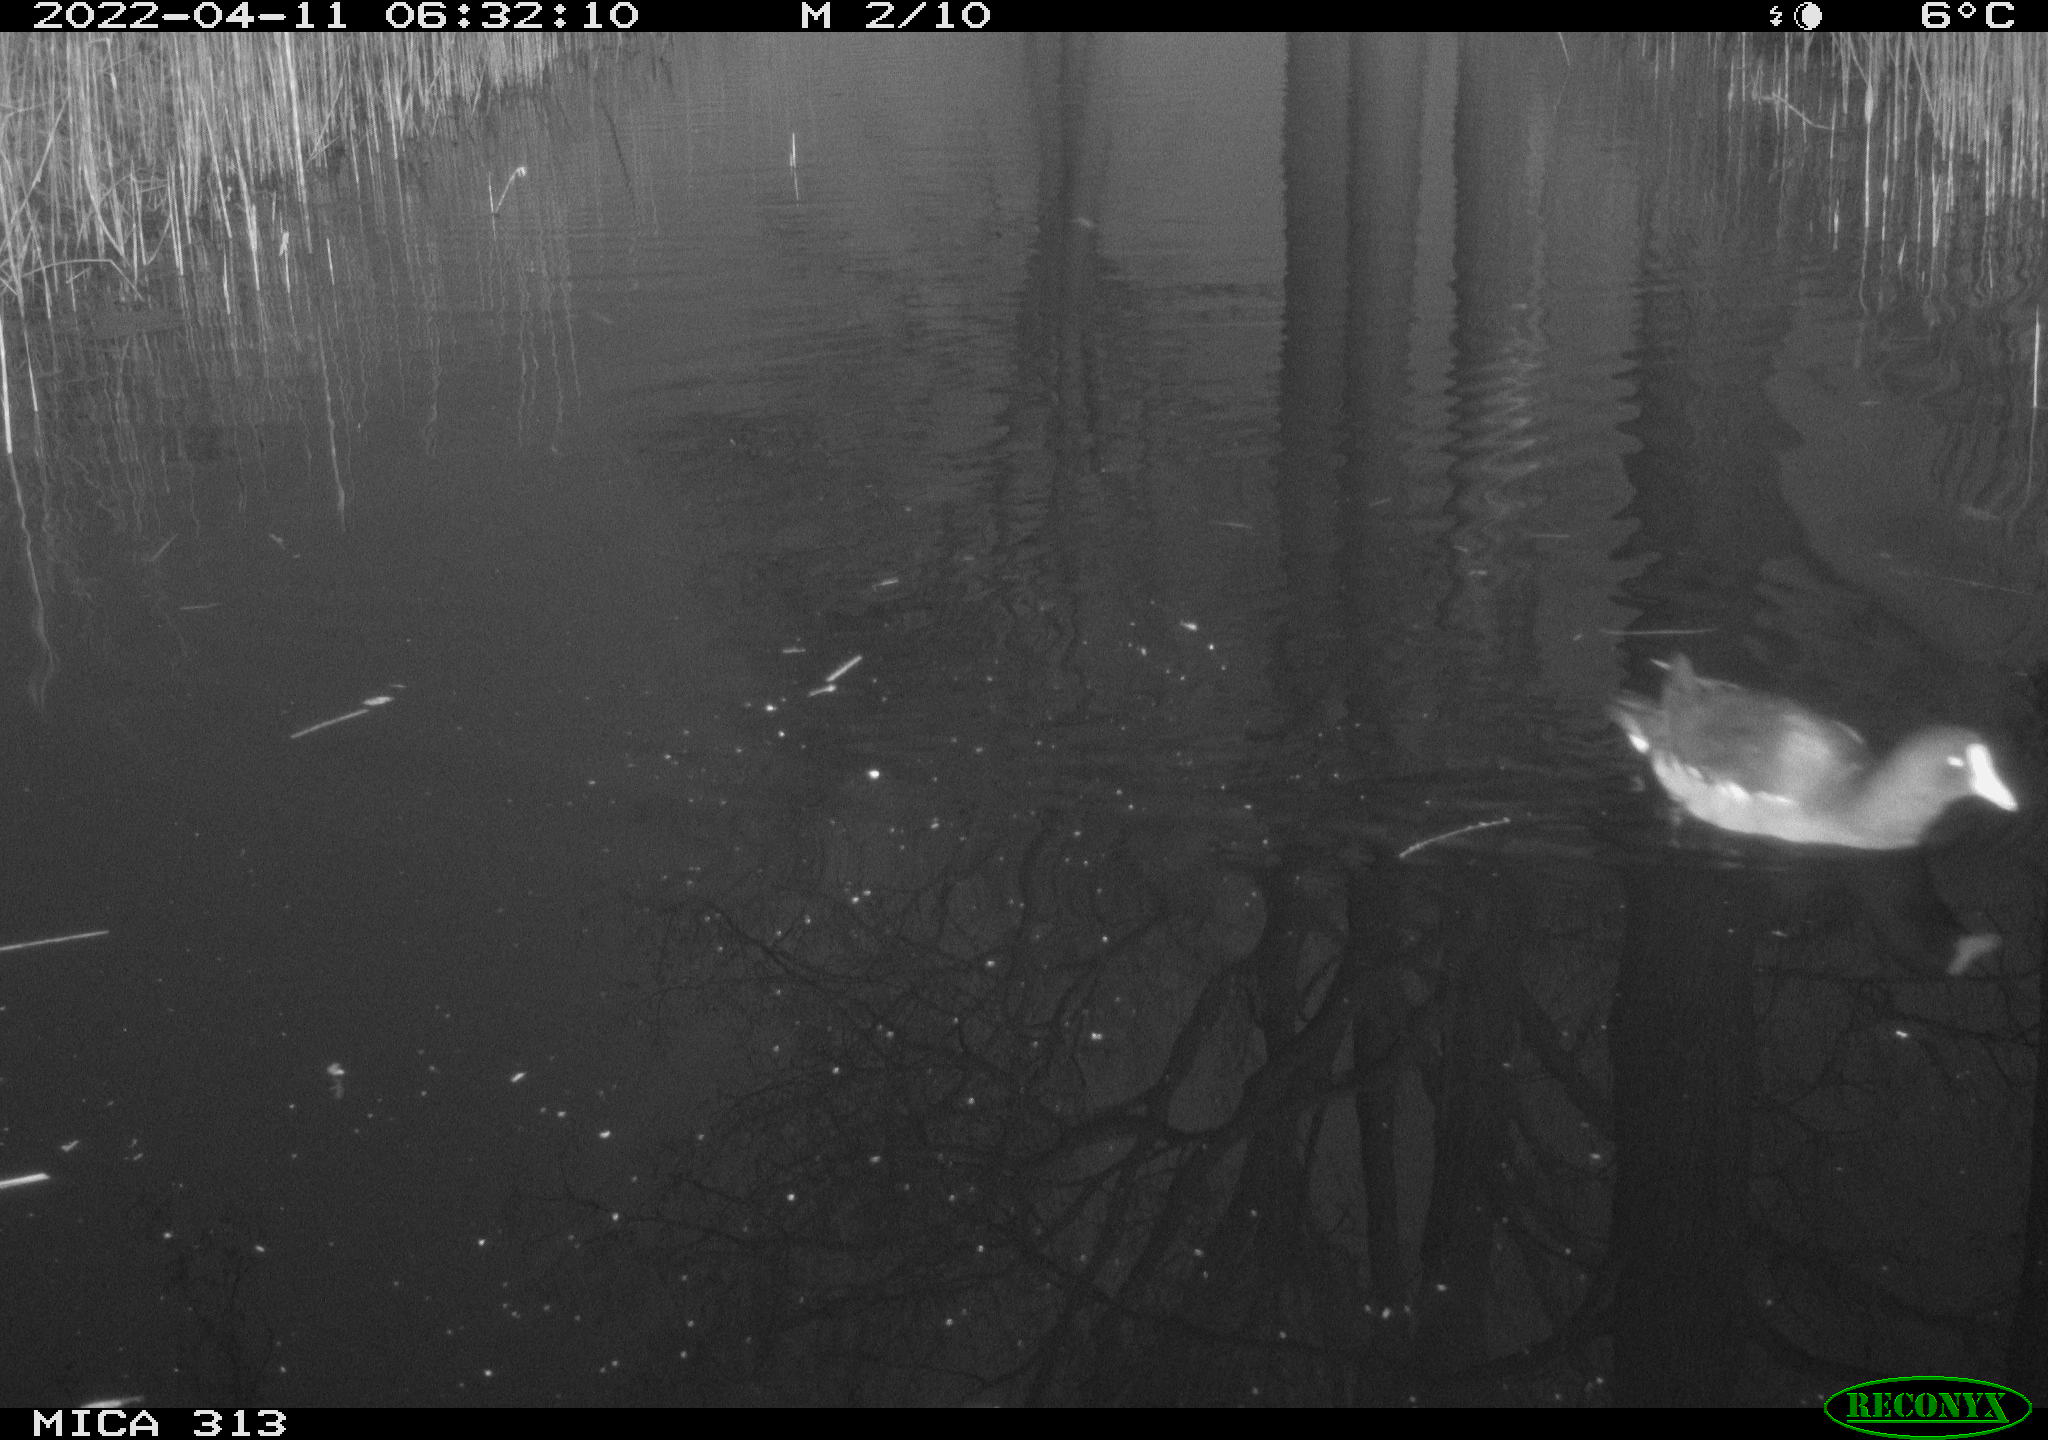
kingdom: Animalia
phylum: Chordata
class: Aves
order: Gruiformes
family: Rallidae
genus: Gallinula
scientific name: Gallinula chloropus
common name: Common moorhen
